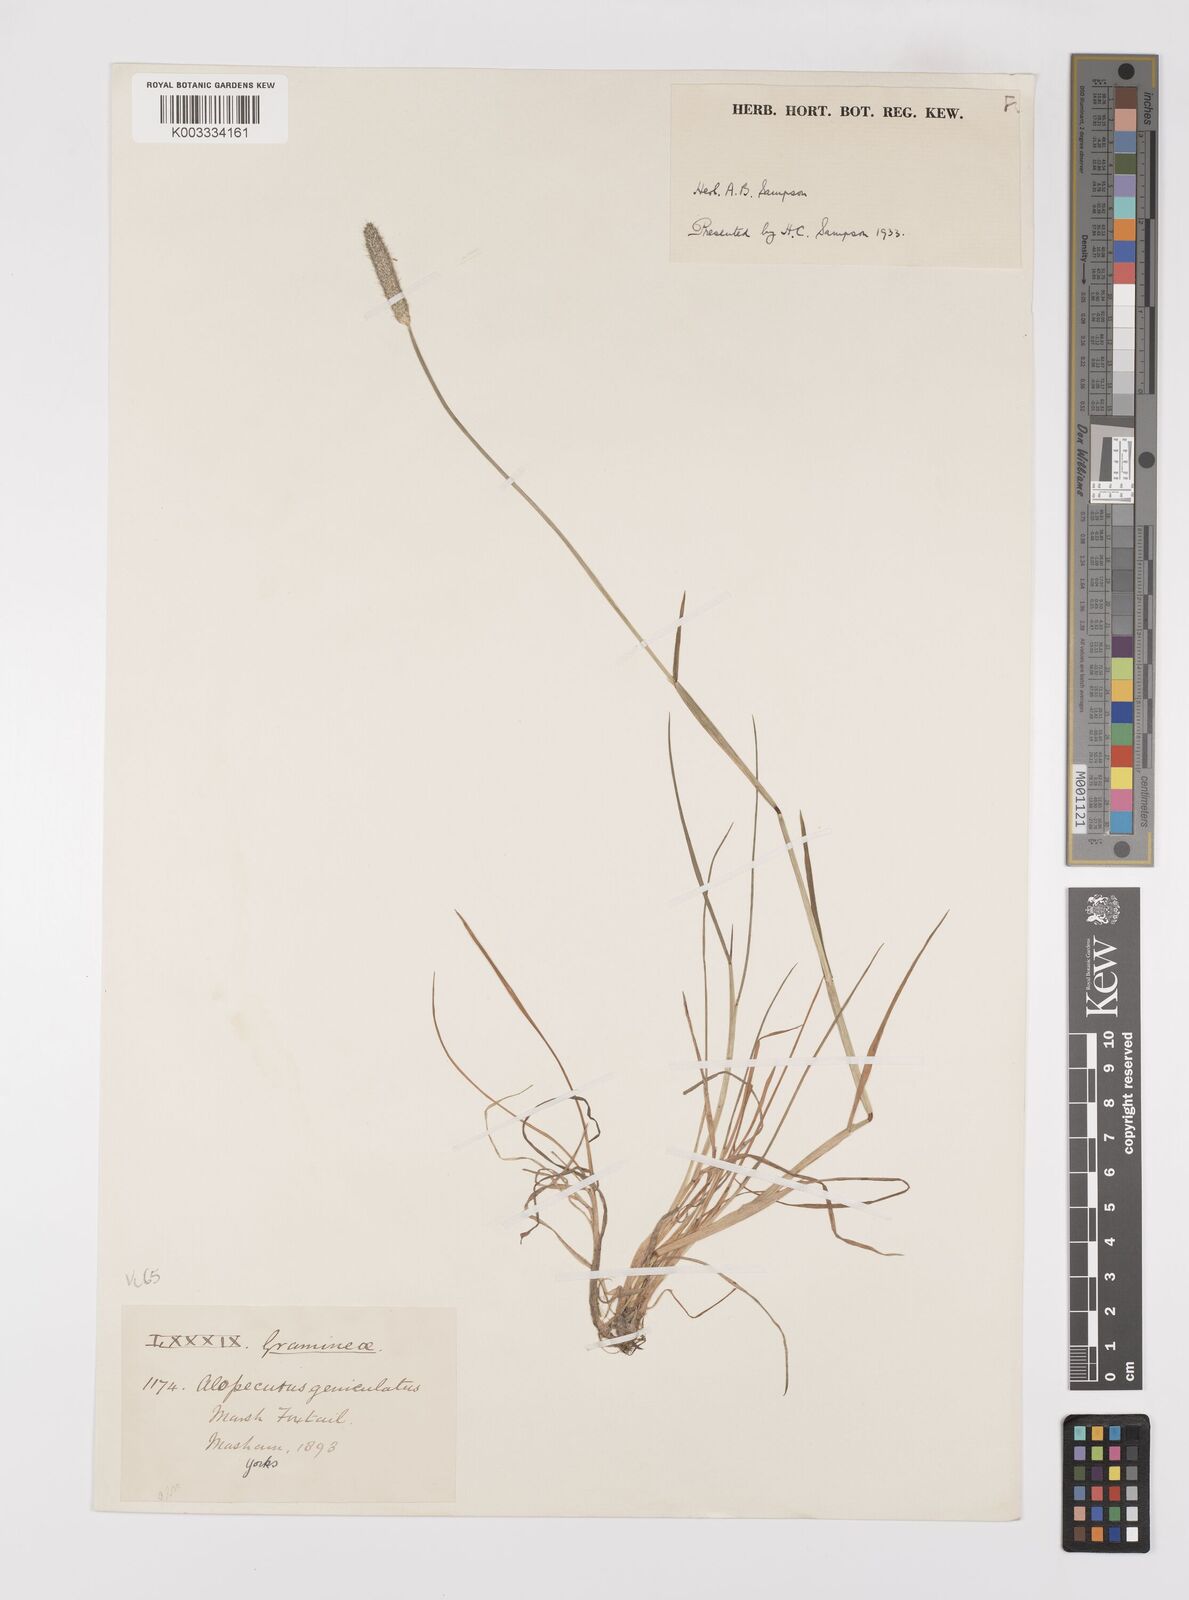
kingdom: Plantae
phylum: Tracheophyta
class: Liliopsida
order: Poales
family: Poaceae
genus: Alopecurus
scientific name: Alopecurus geniculatus
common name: Water foxtail
